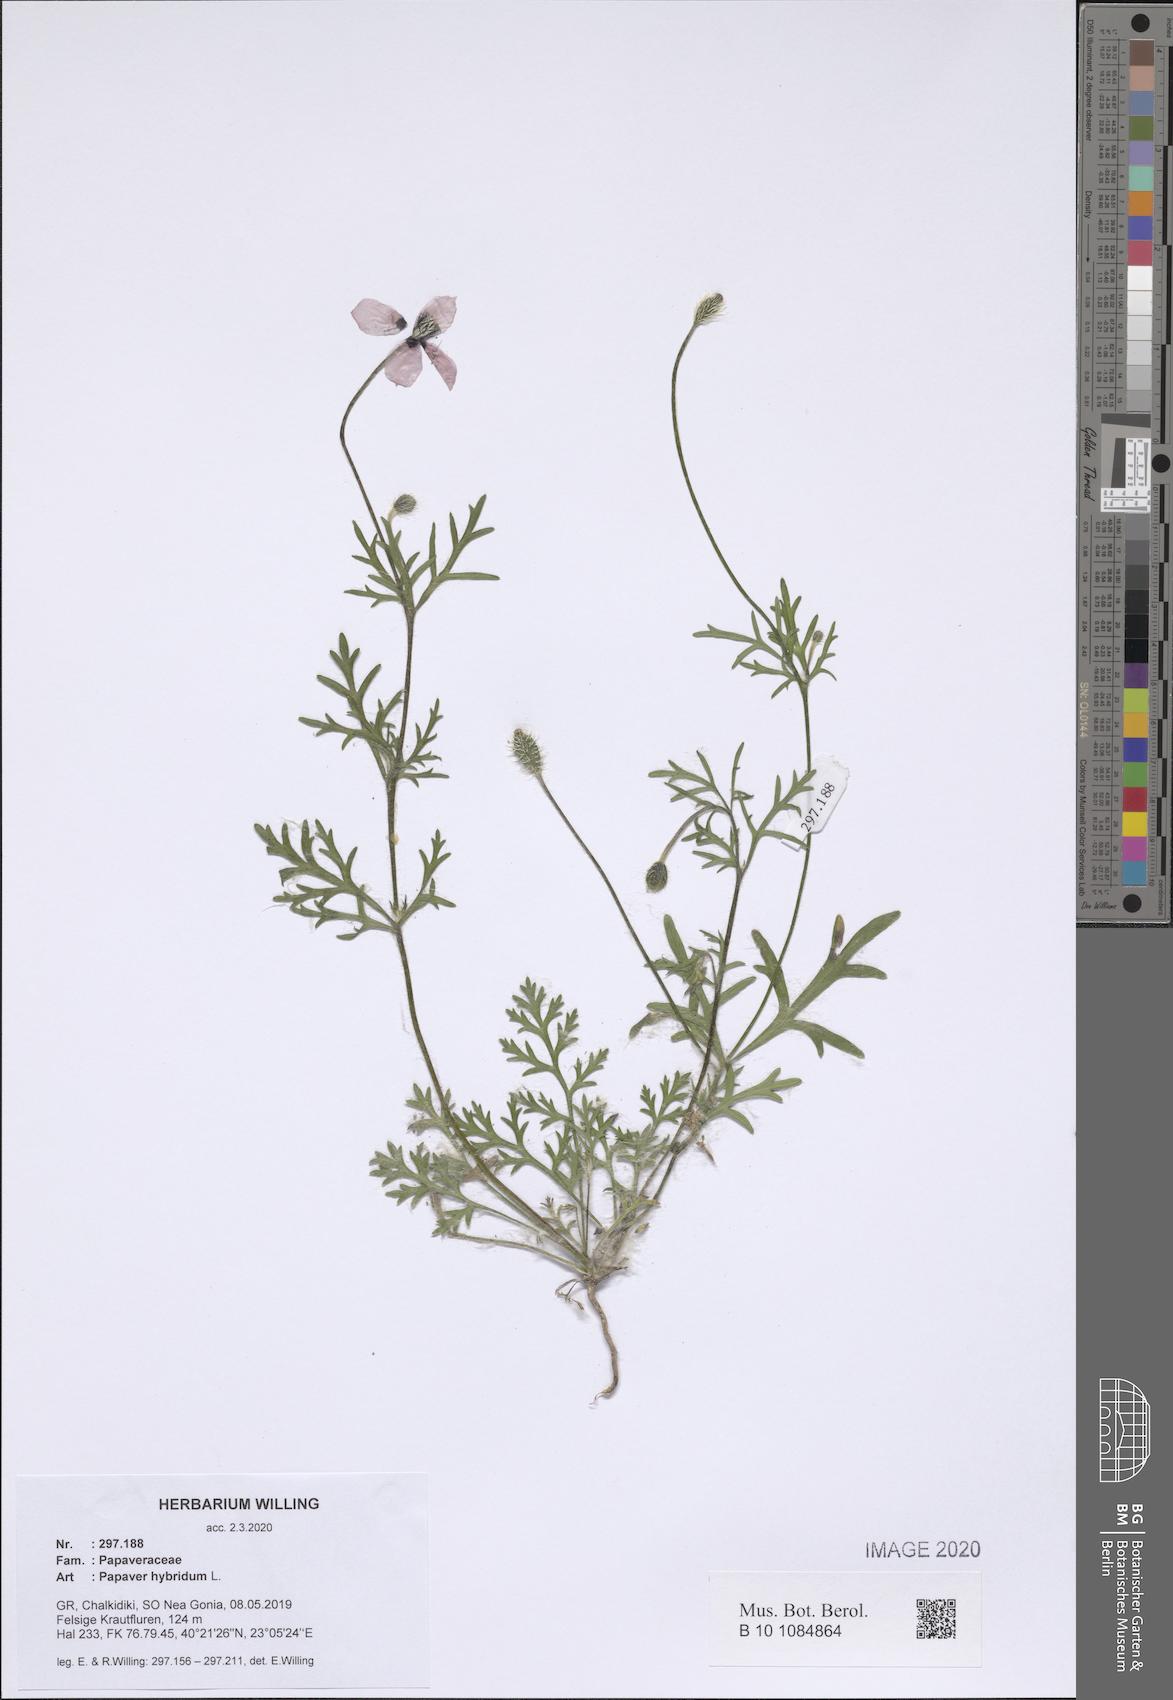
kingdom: Plantae
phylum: Tracheophyta
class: Magnoliopsida
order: Ranunculales
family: Papaveraceae
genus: Roemeria
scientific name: Roemeria hispida
